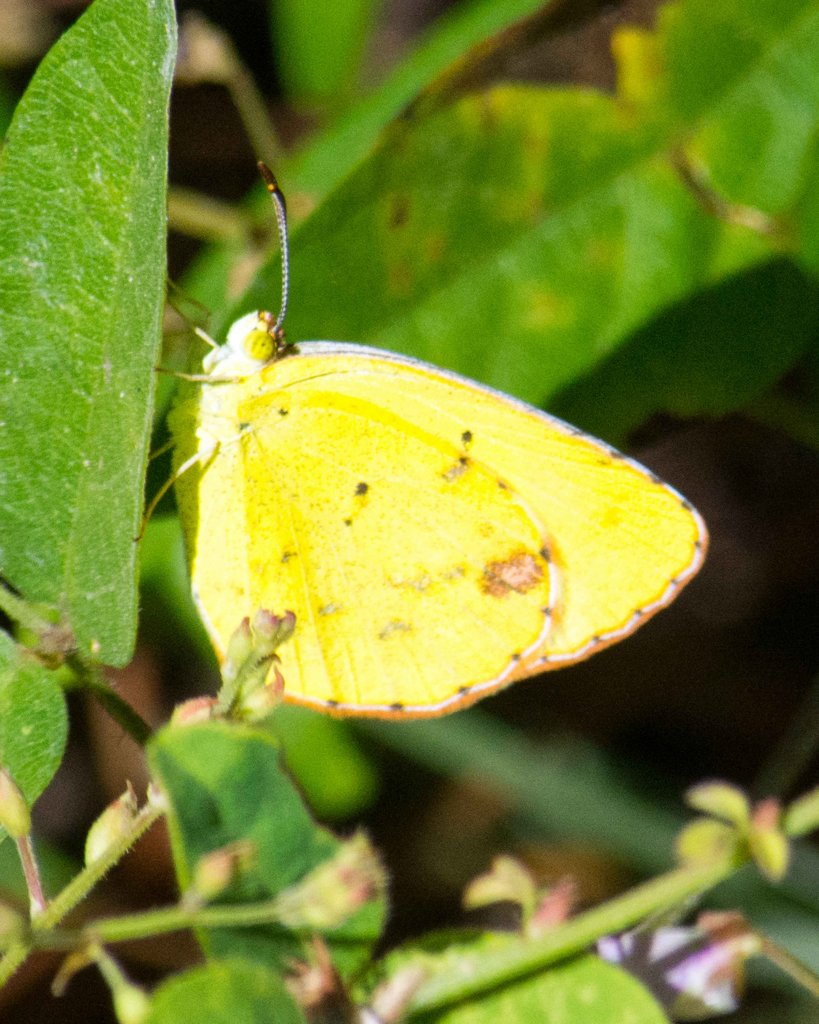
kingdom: Animalia
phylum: Arthropoda
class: Insecta
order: Lepidoptera
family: Pieridae
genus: Pyrisitia
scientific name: Pyrisitia lisa
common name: Little Yellow
